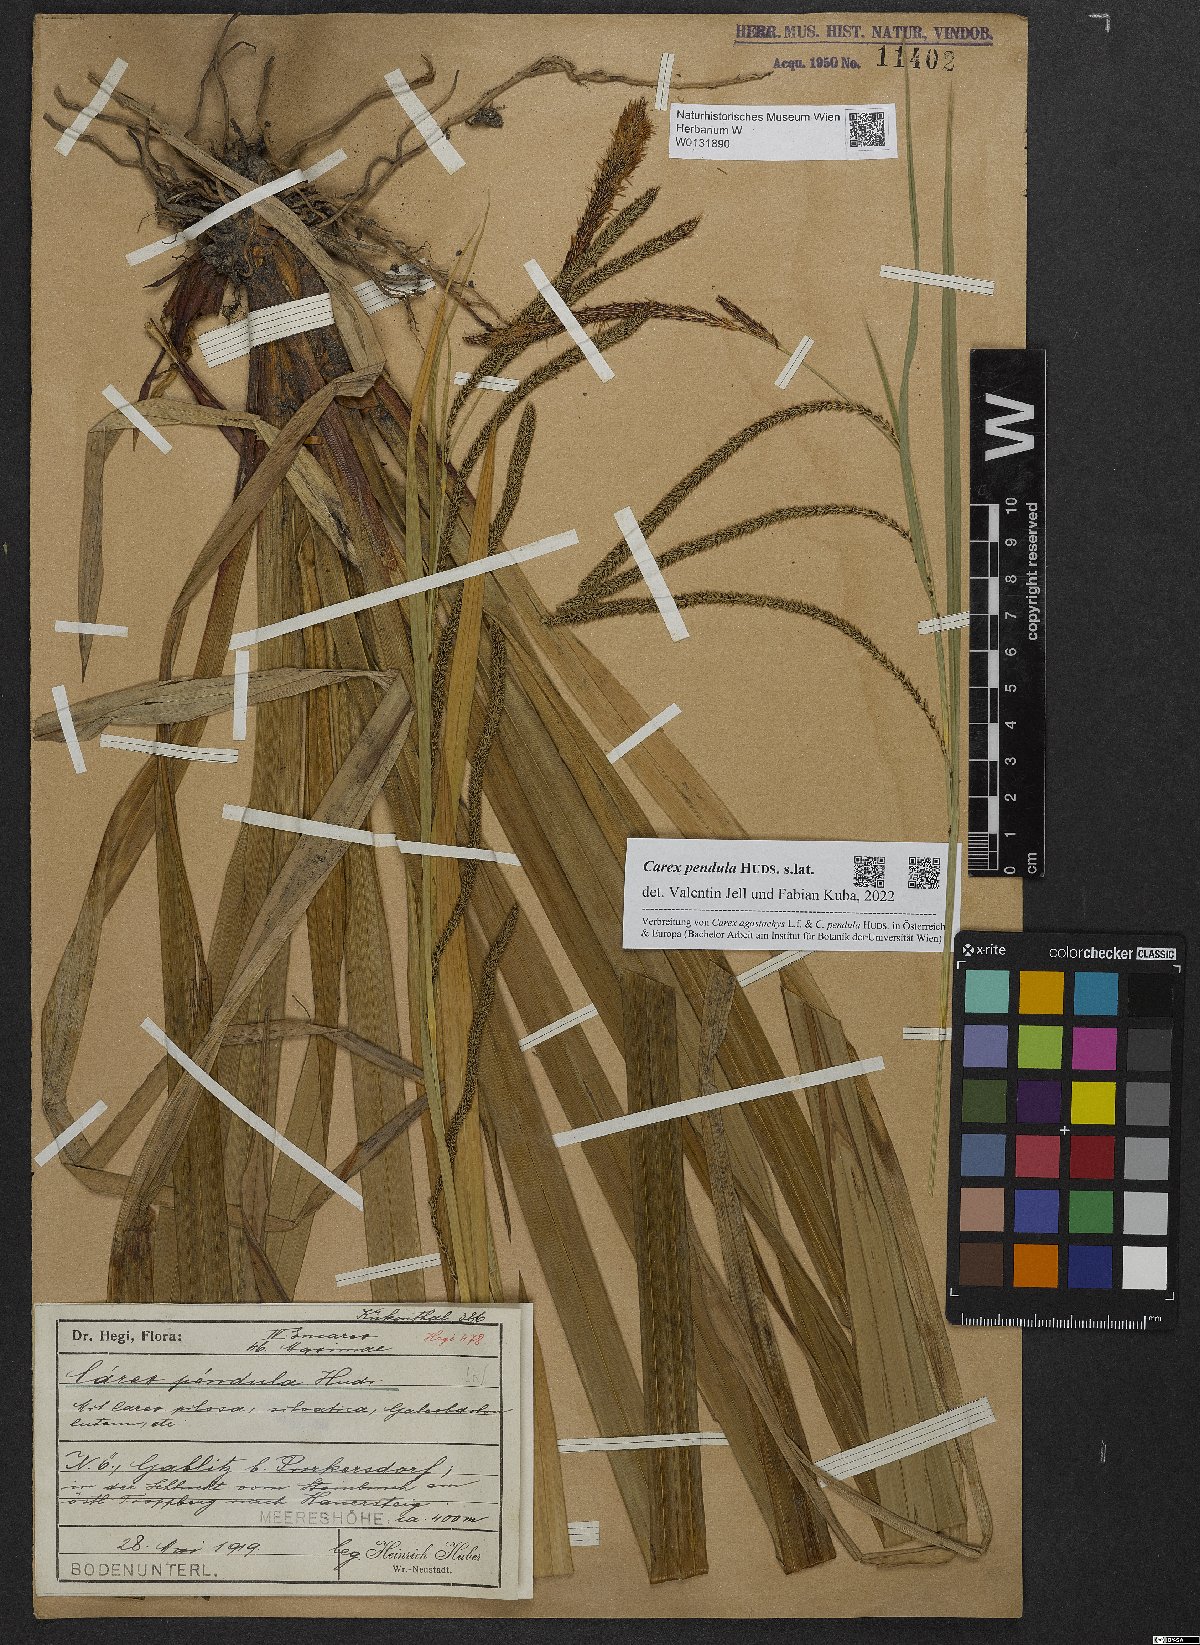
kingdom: Plantae
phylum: Tracheophyta
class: Liliopsida
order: Poales
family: Cyperaceae
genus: Carex
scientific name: Carex pendula
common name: Pendulous sedge
